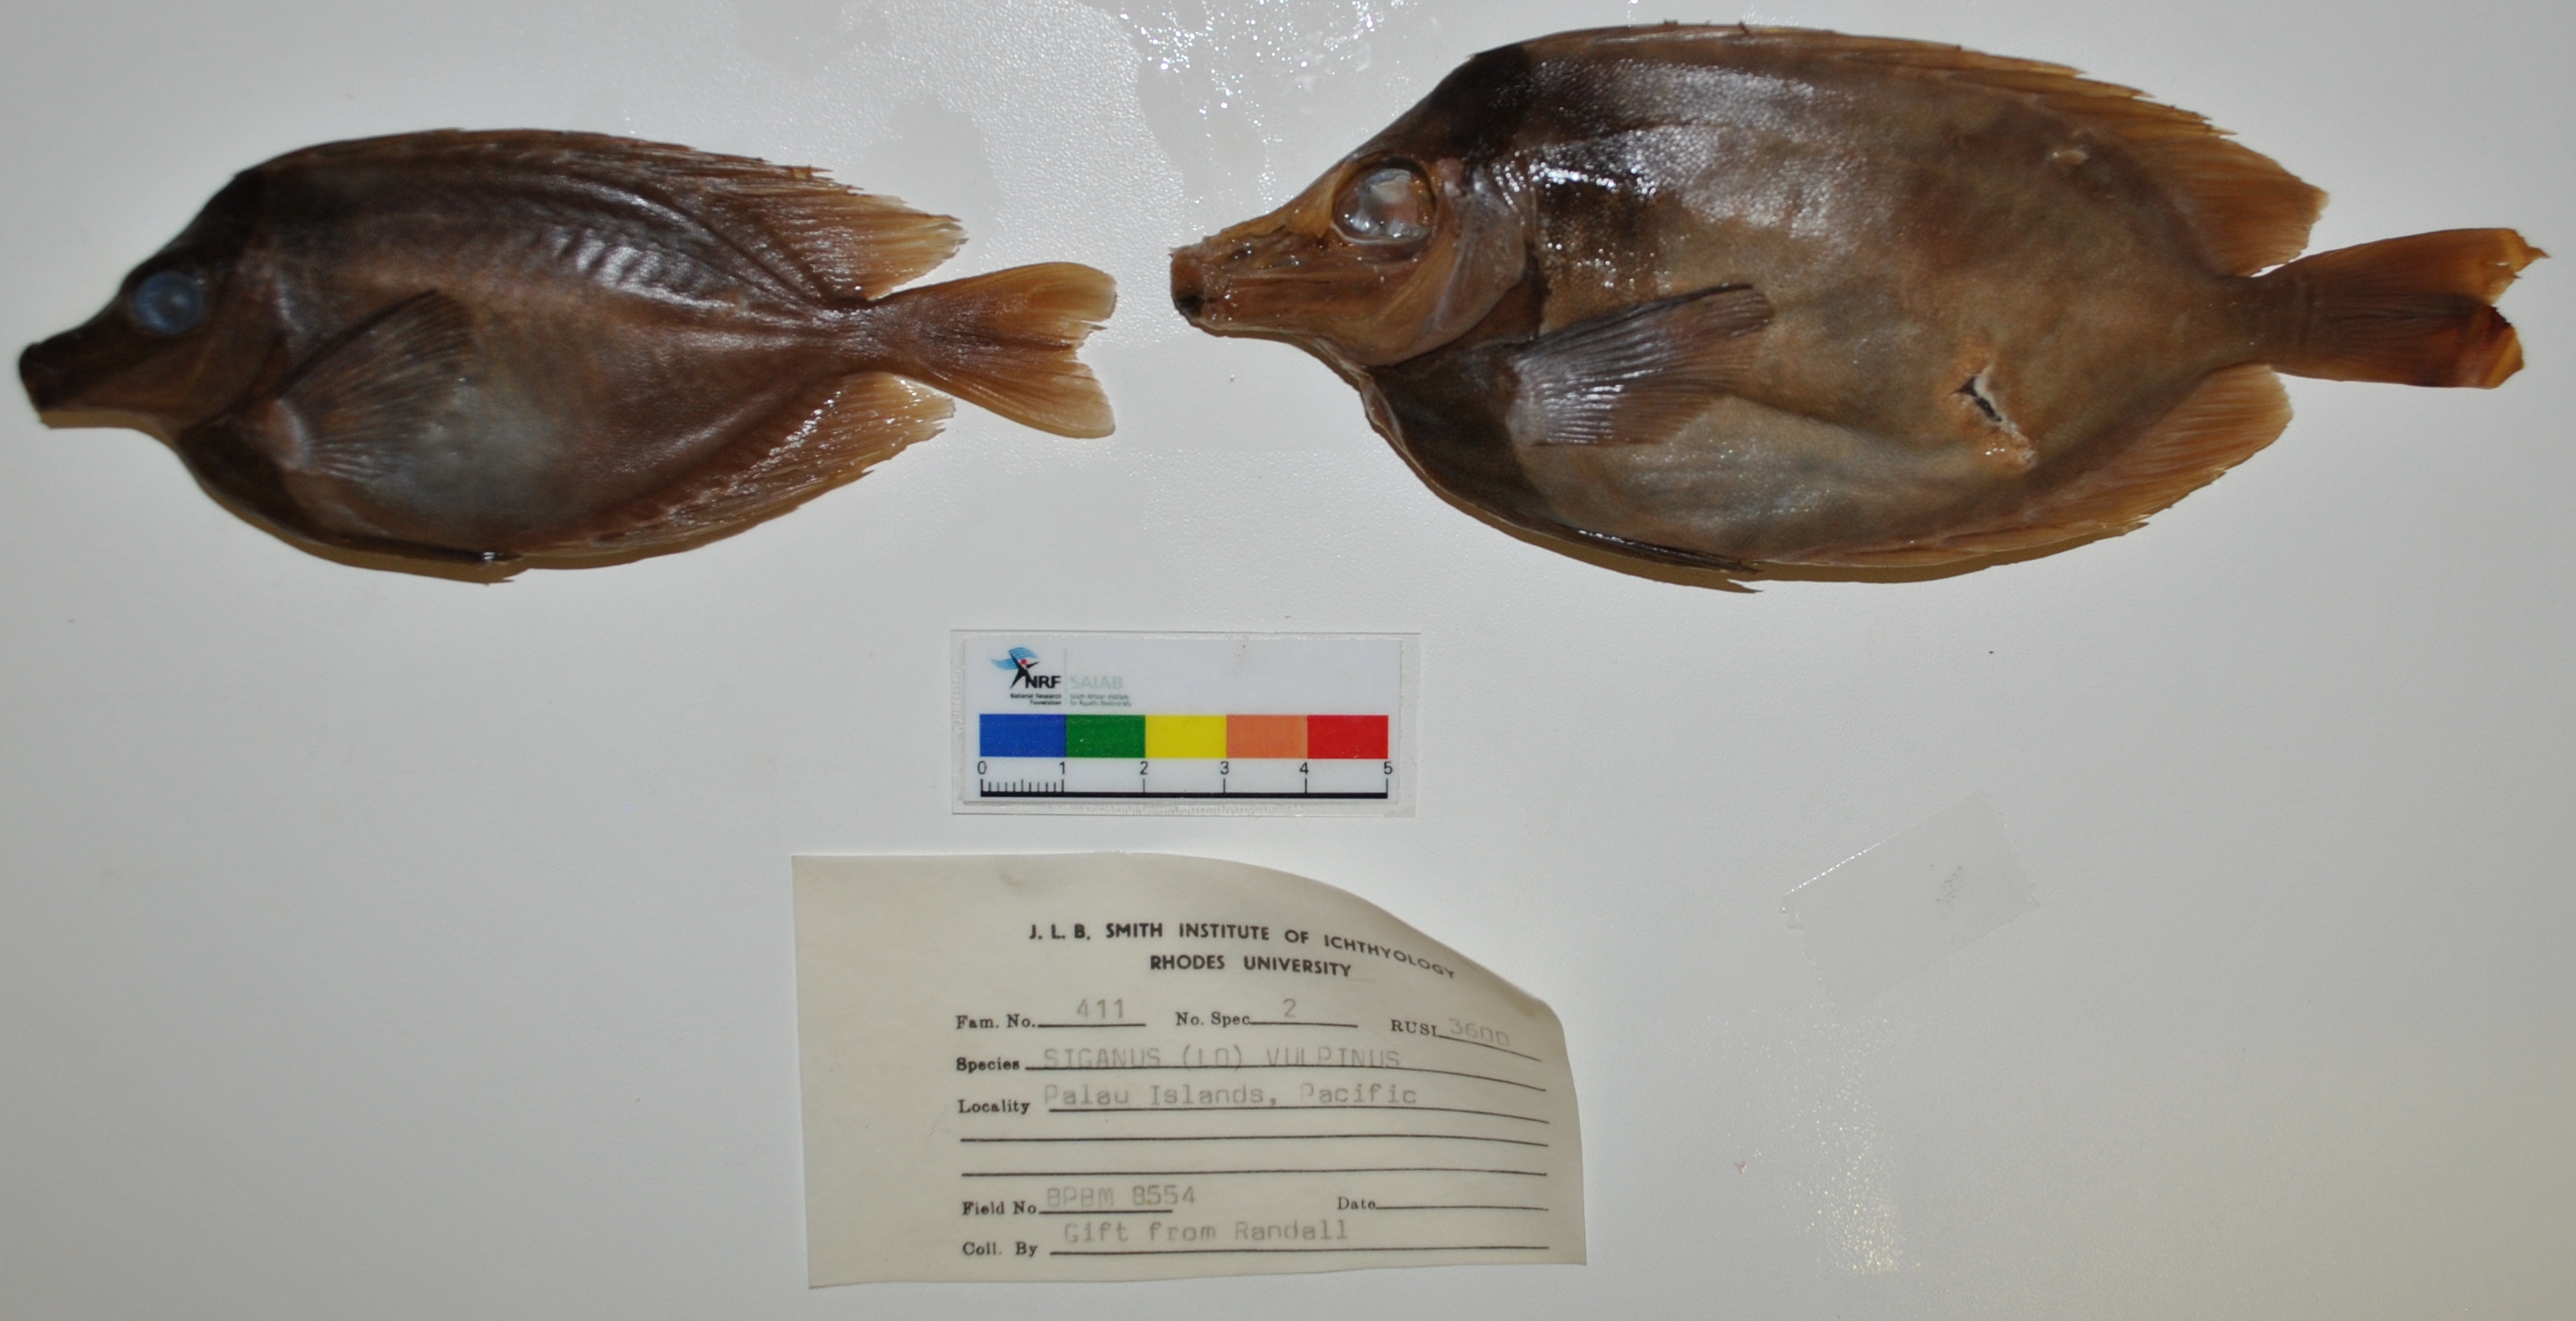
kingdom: Animalia
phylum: Chordata
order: Perciformes
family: Siganidae
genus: Siganus
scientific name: Siganus vulpinus
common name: Foxface
